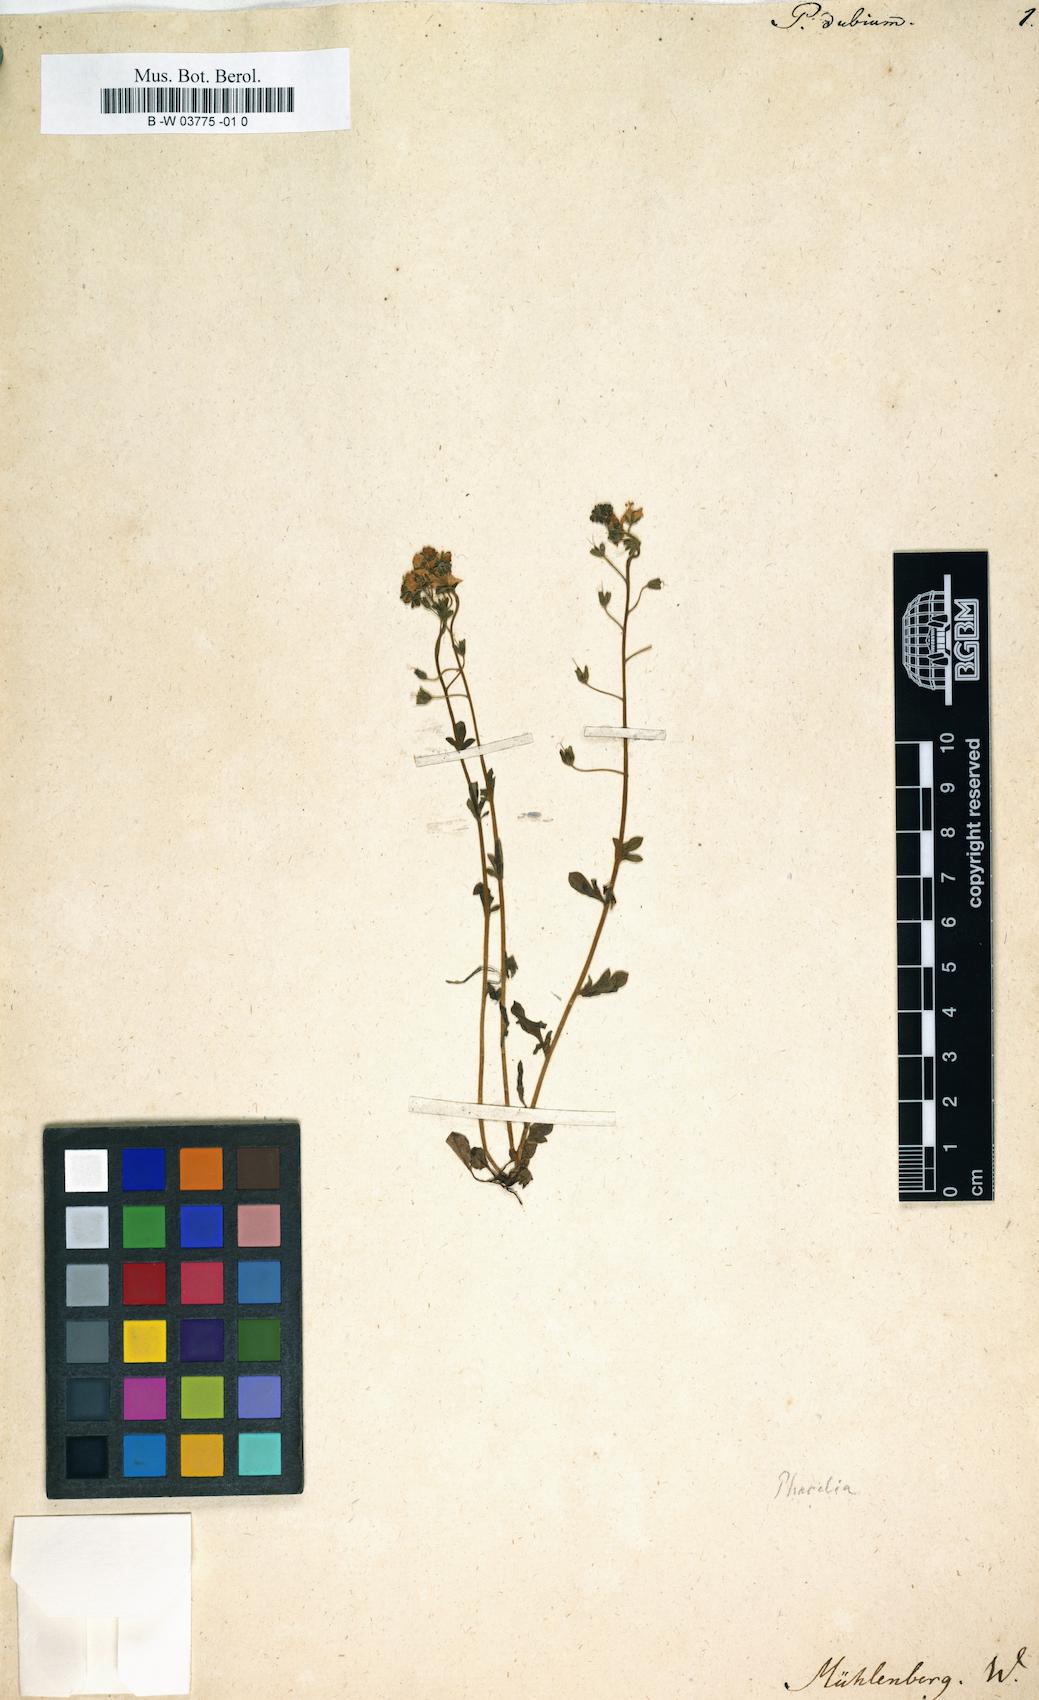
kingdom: Plantae
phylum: Tracheophyta
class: Magnoliopsida
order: Ericales
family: Polemoniaceae
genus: Phlox
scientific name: Phlox gracilis
